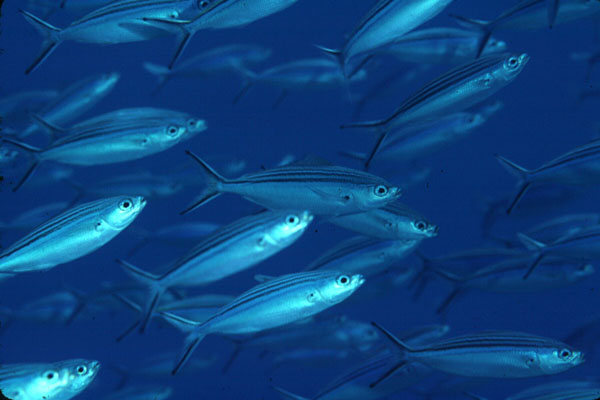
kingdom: Animalia
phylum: Chordata
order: Perciformes
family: Caesionidae
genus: Caesio
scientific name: Caesio striata
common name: Striated fusilier
